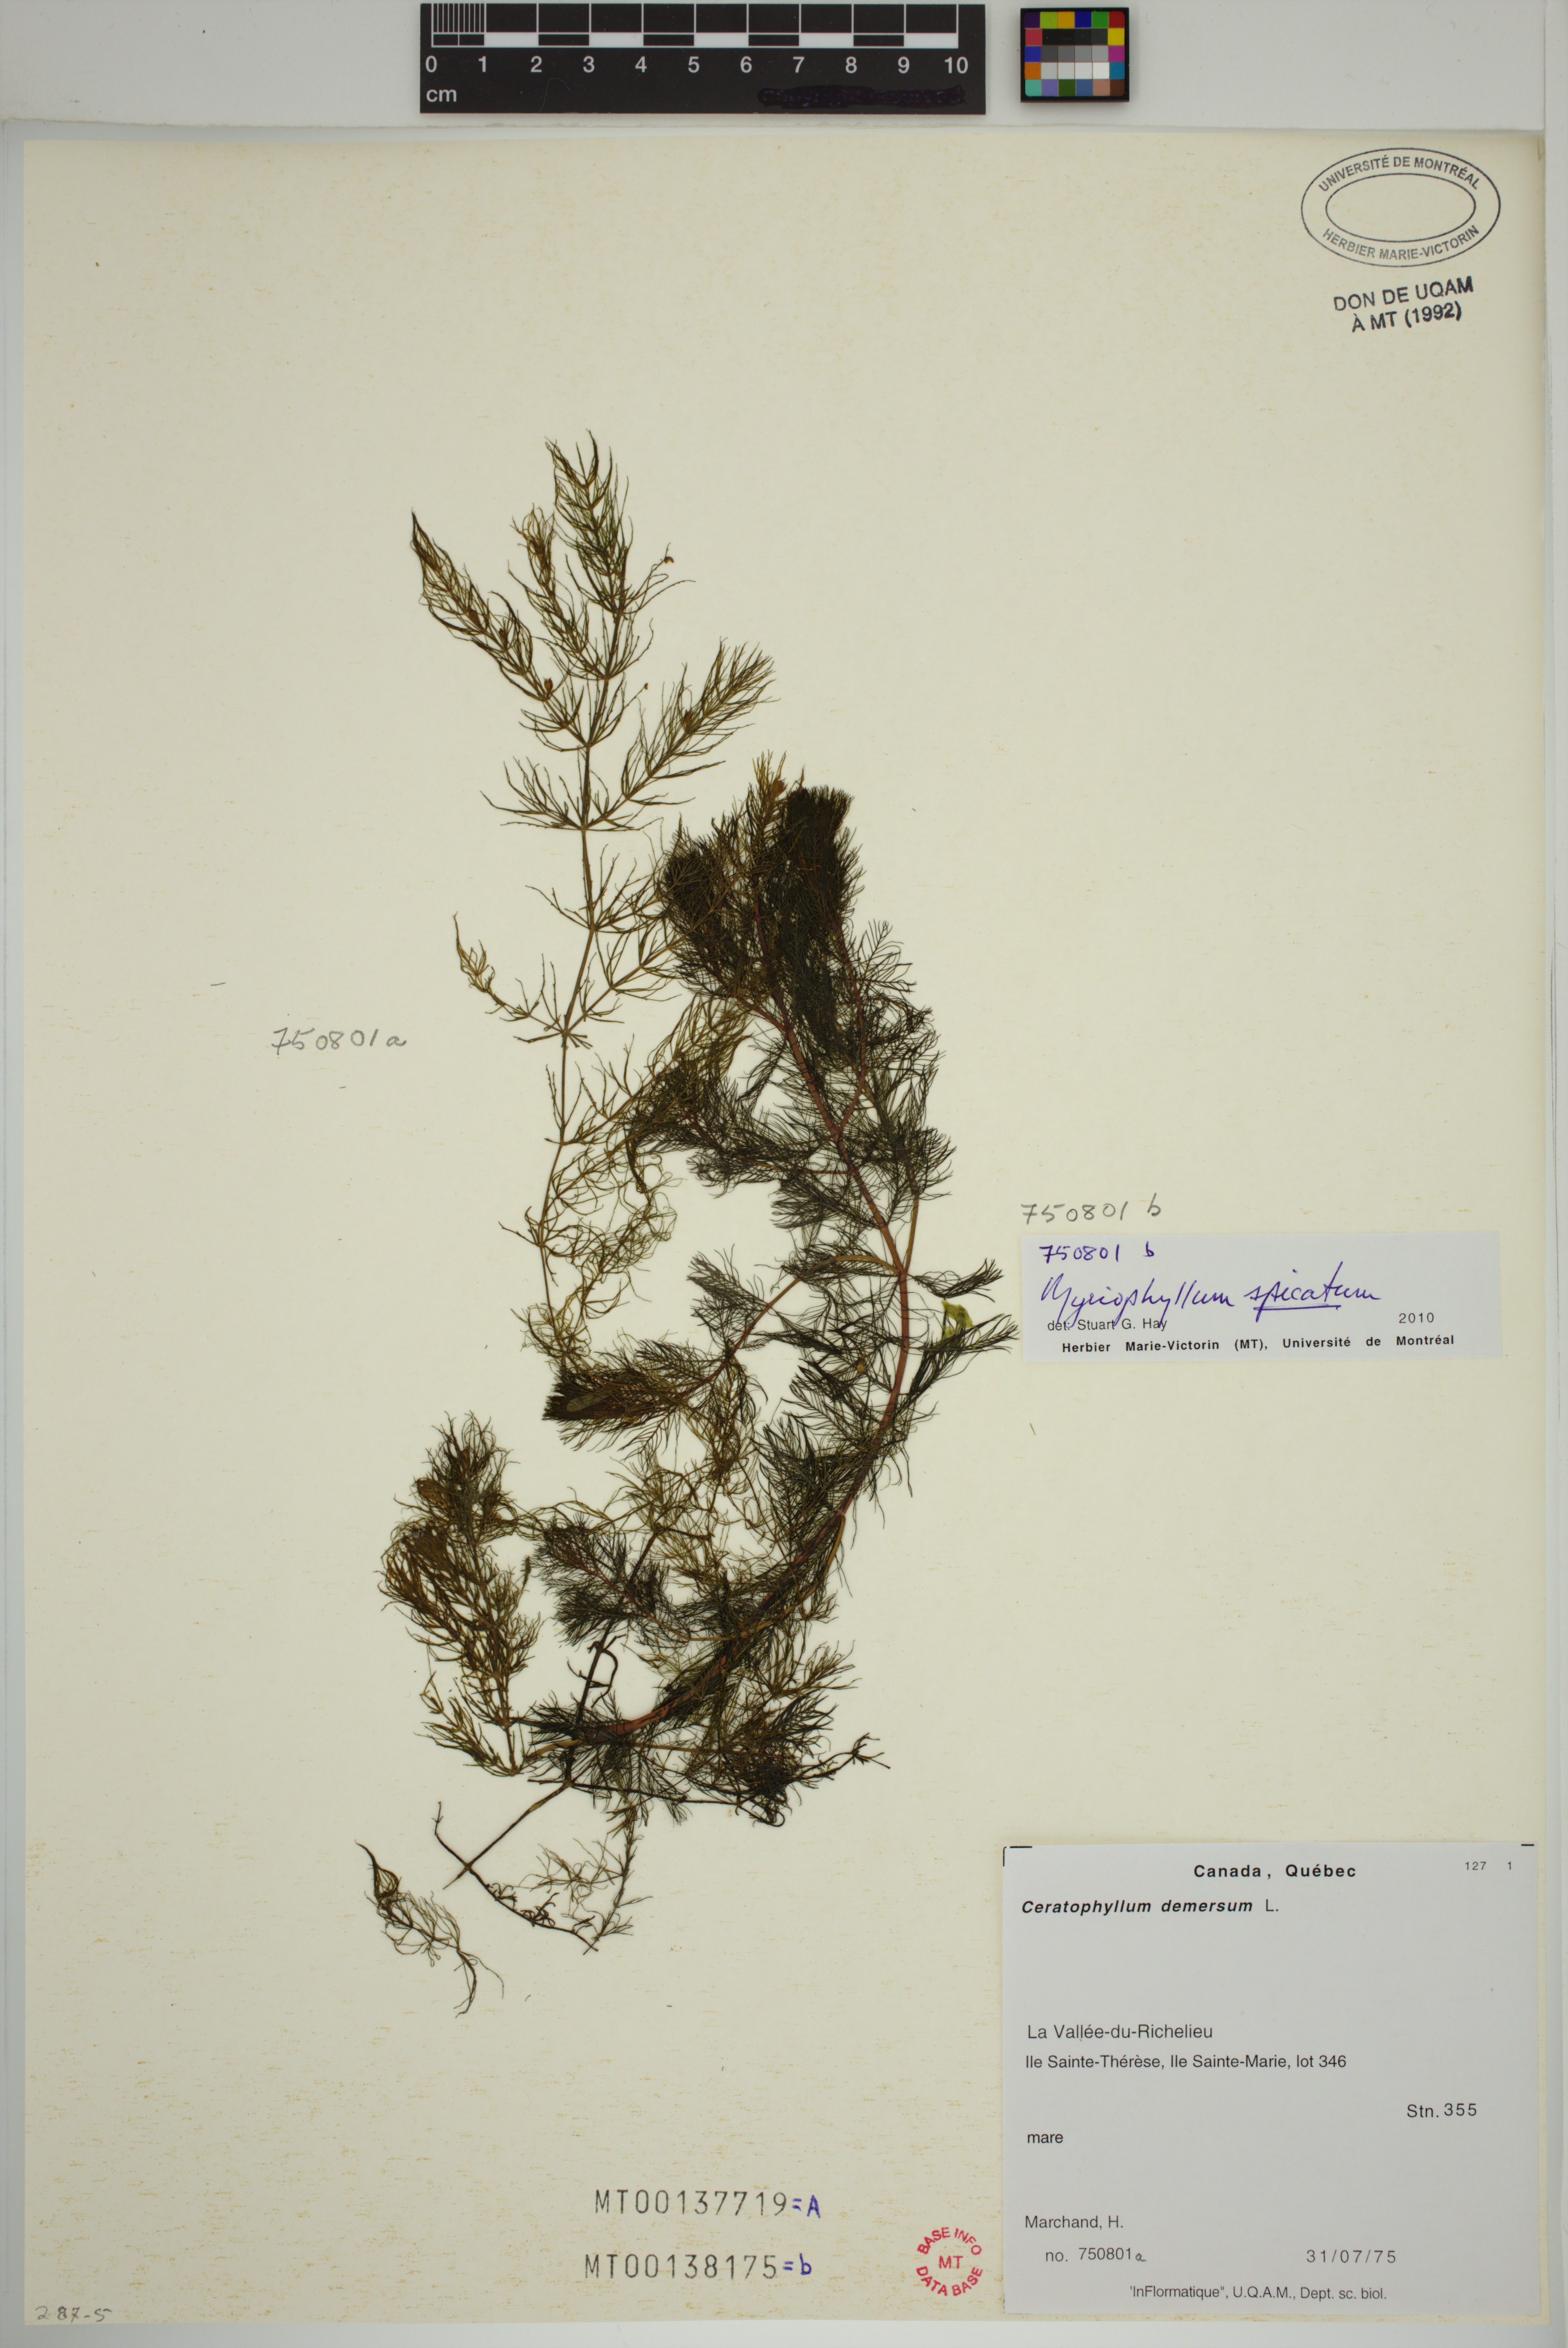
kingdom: Plantae
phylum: Tracheophyta
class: Magnoliopsida
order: Ceratophyllales
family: Ceratophyllaceae
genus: Ceratophyllum
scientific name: Ceratophyllum demersum
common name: Rigid hornwort
